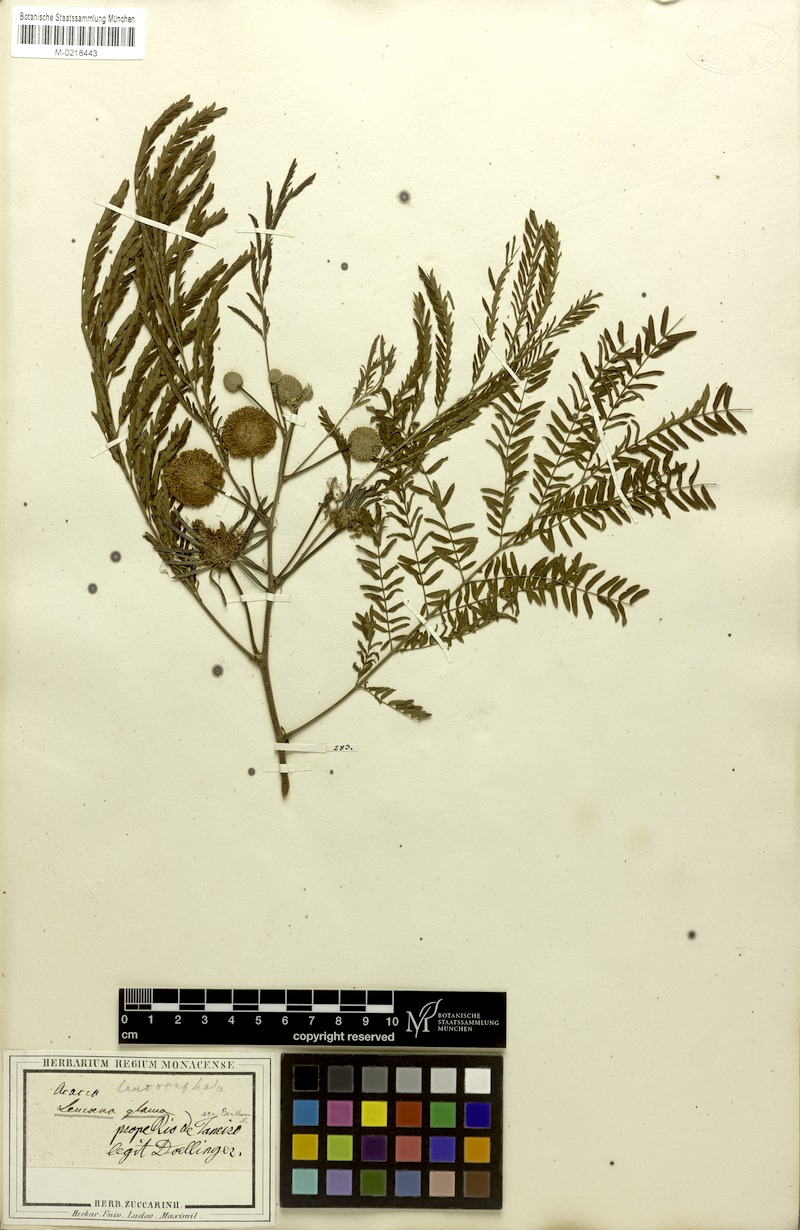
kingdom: Plantae
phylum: Tracheophyta
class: Magnoliopsida
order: Fabales
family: Fabaceae
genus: Leucaena
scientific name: Leucaena leucocephala
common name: White leadtree
